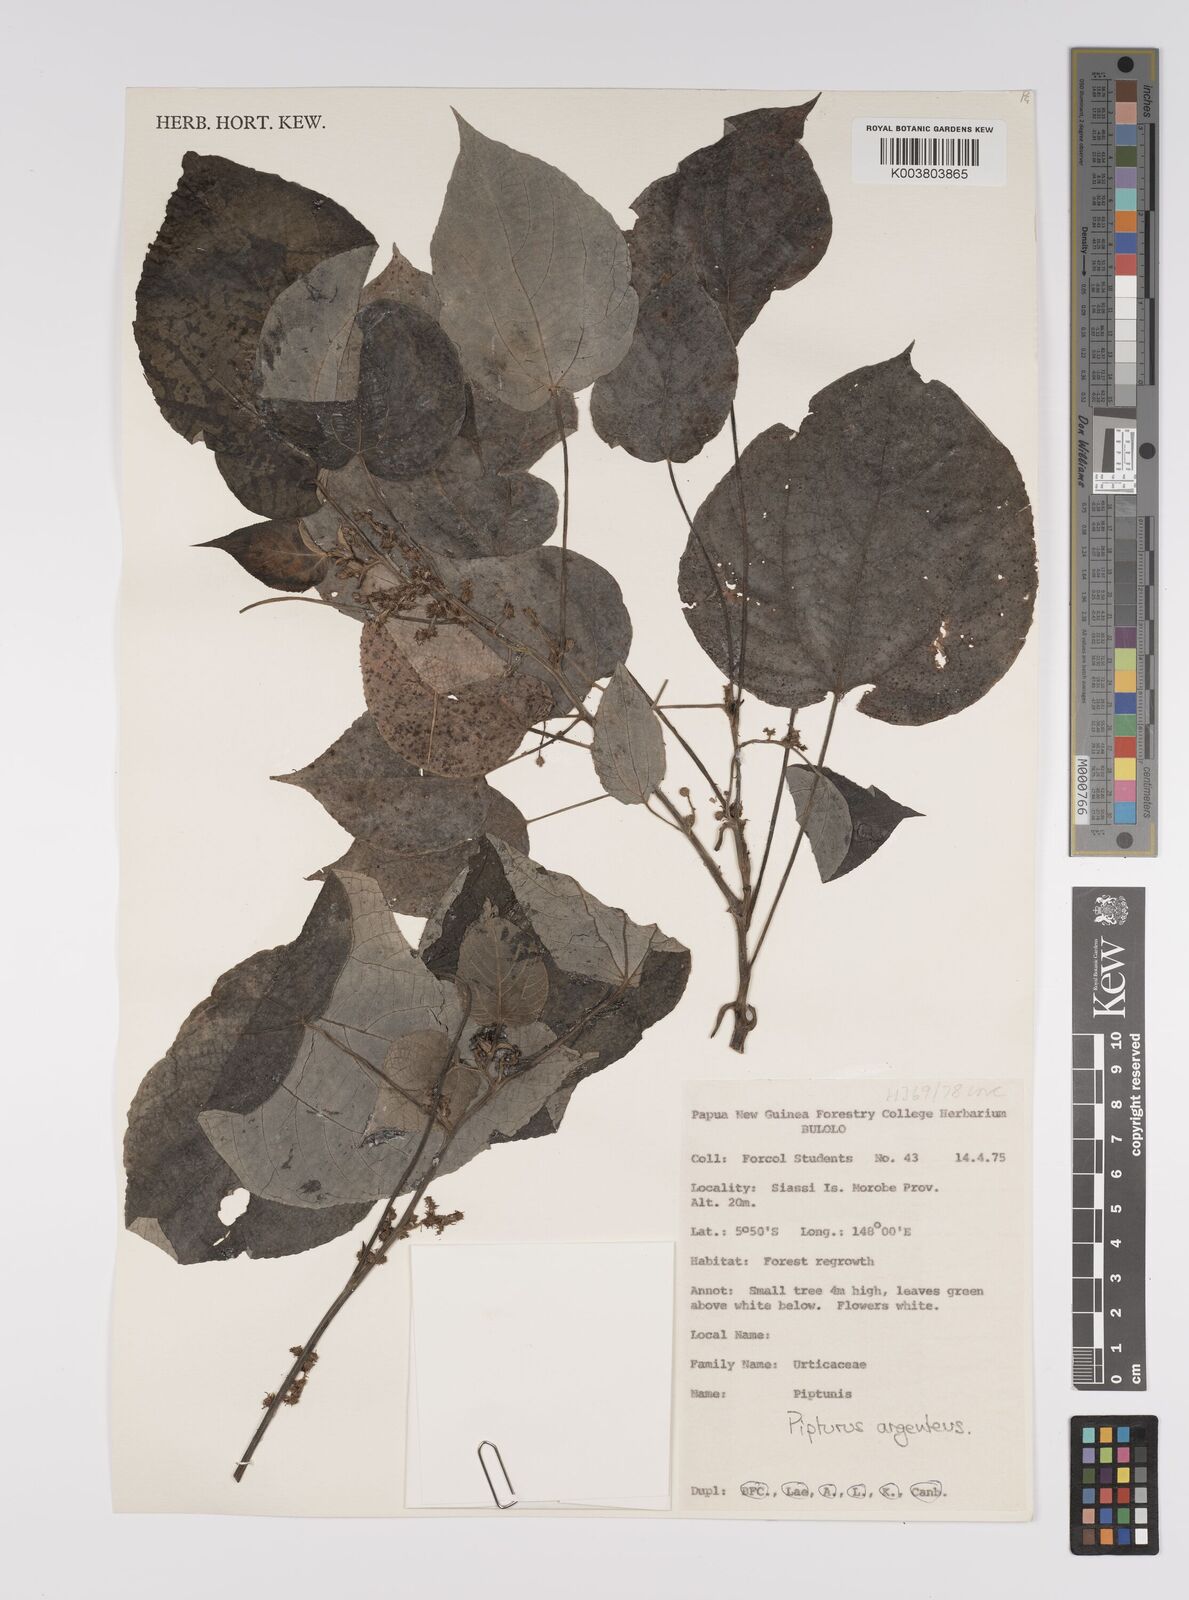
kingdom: Plantae
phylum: Tracheophyta
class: Magnoliopsida
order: Rosales
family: Urticaceae
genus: Pipturus
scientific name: Pipturus argenteus
